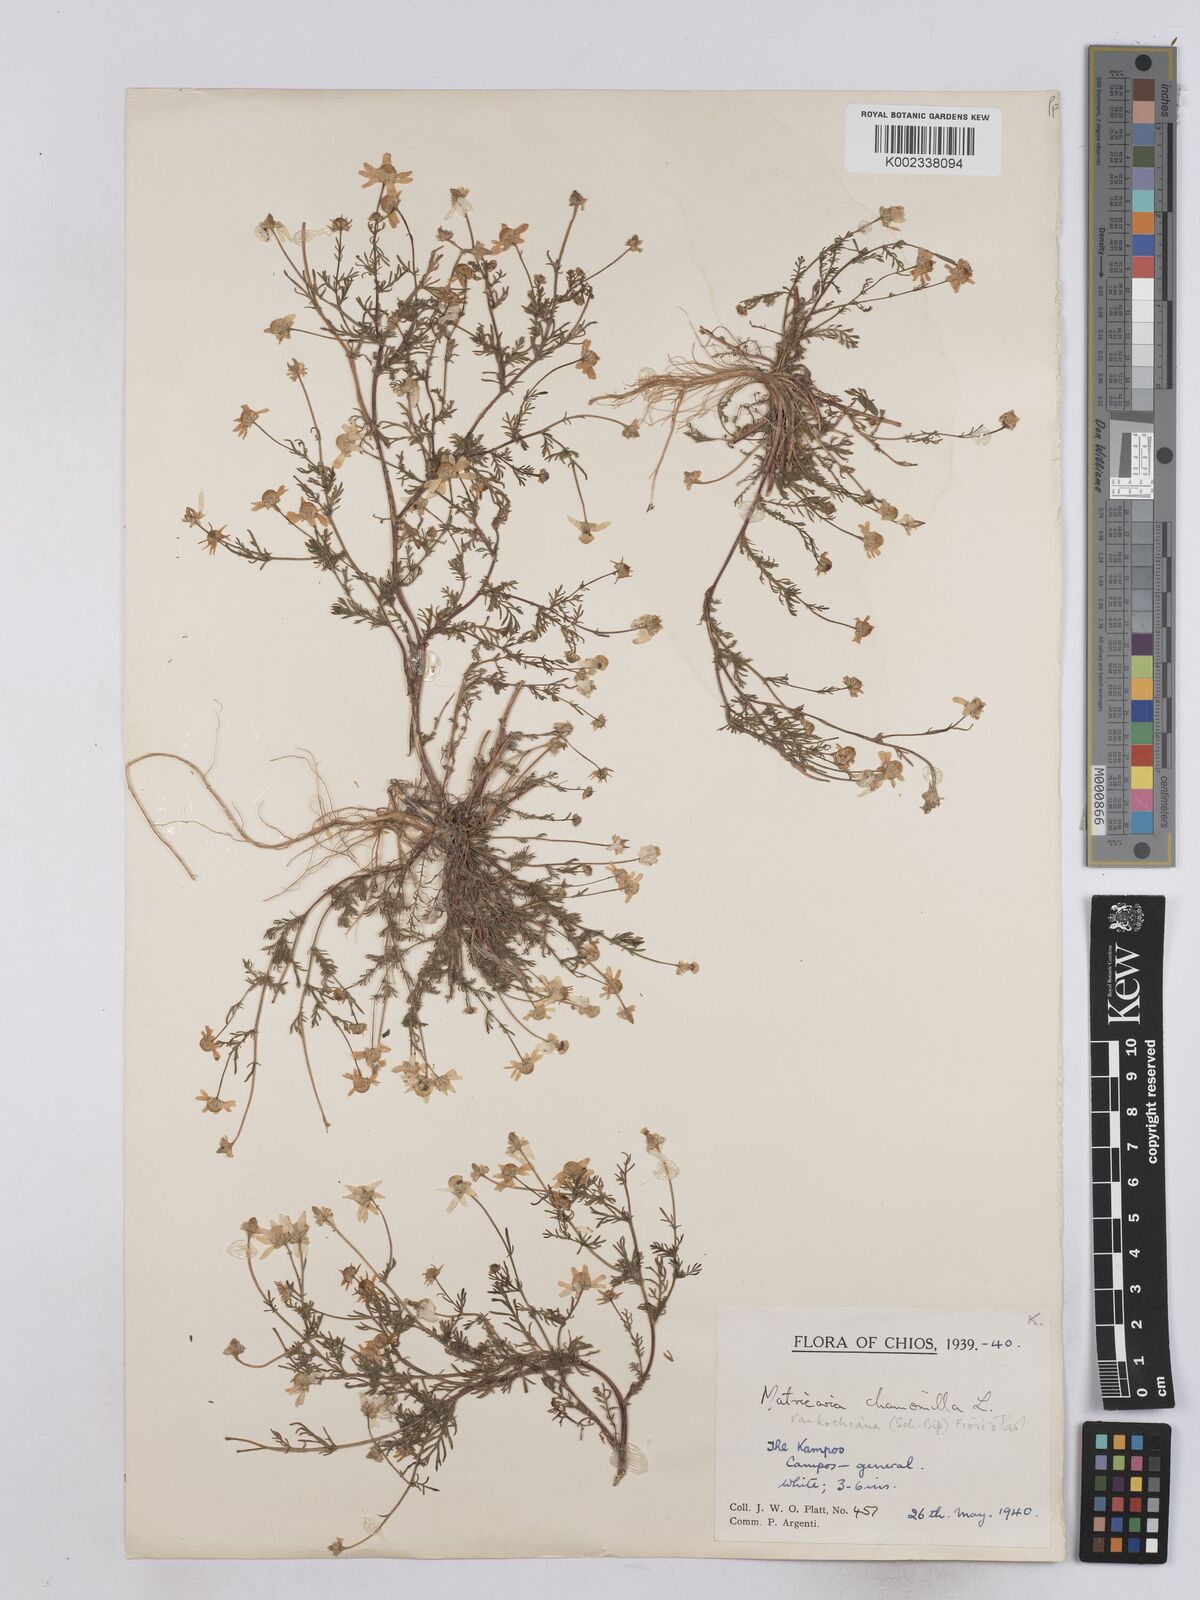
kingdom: Plantae
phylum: Tracheophyta
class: Magnoliopsida
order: Asterales
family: Asteraceae
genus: Matricaria
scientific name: Matricaria chamomilla
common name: Scented mayweed
